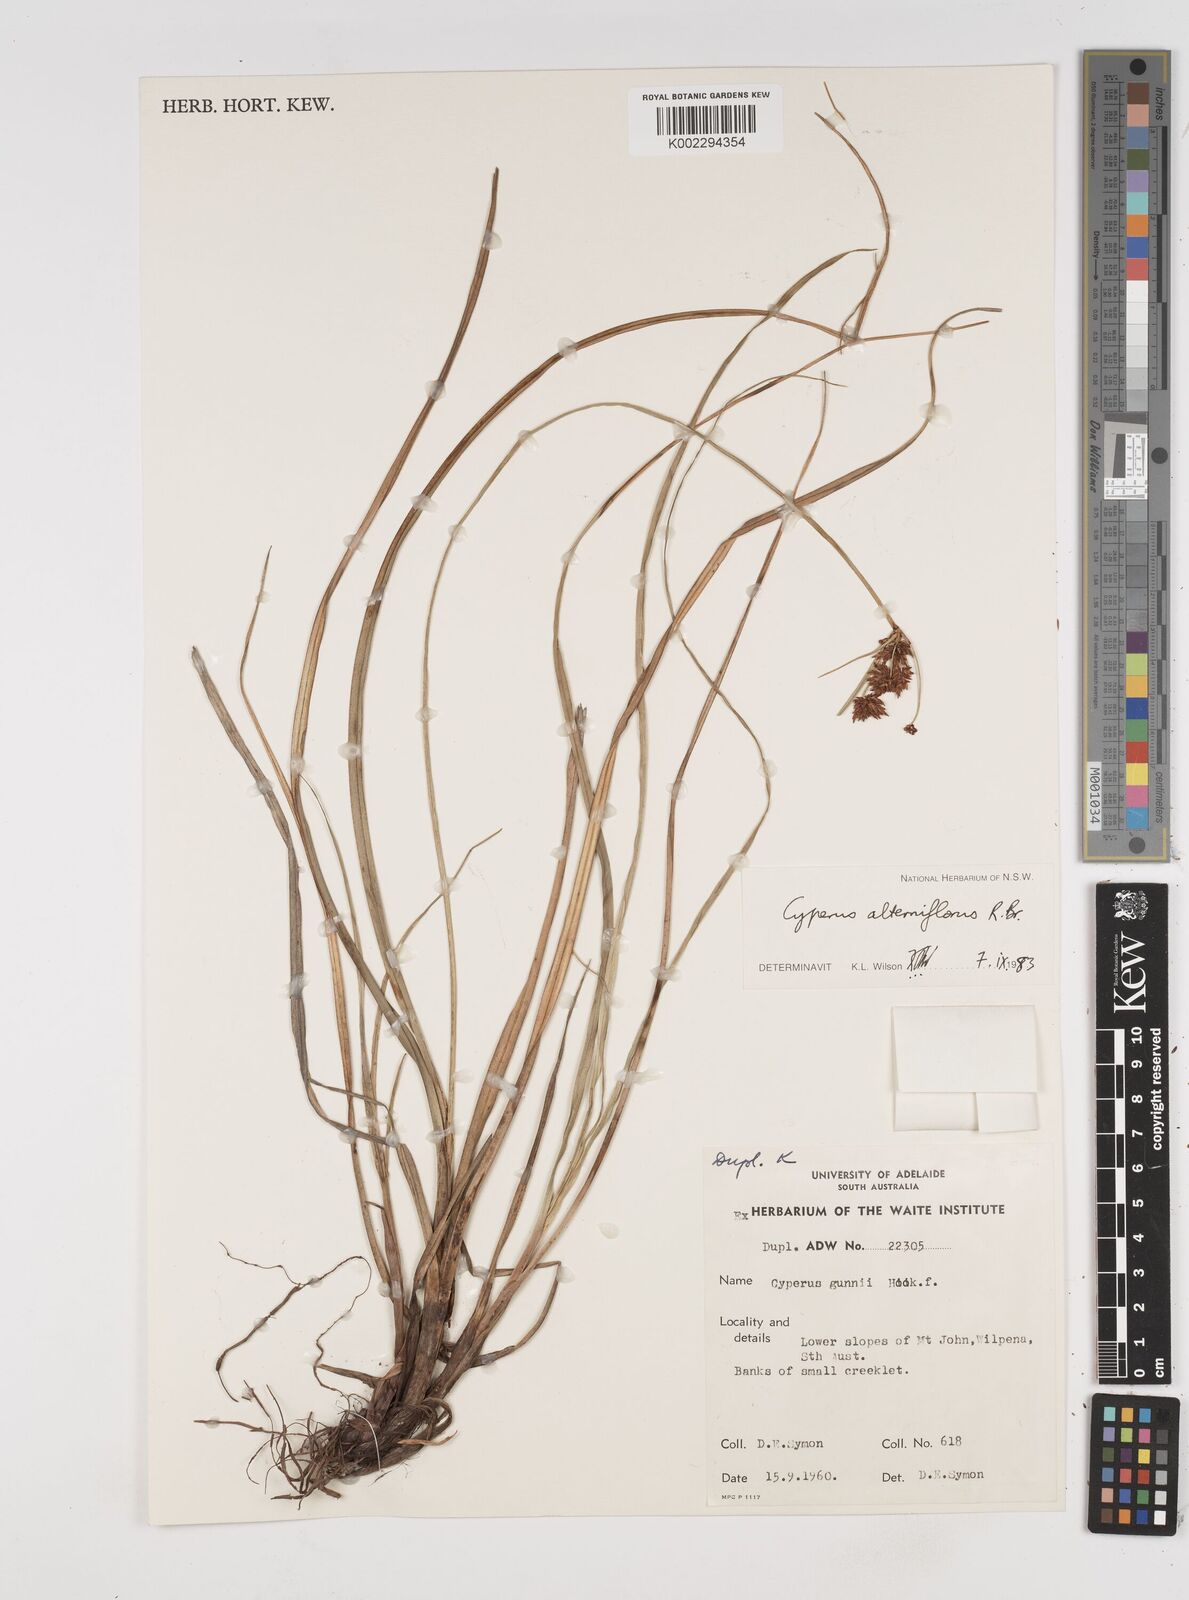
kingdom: Plantae
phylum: Tracheophyta
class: Liliopsida
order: Poales
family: Cyperaceae
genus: Cyperus
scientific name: Cyperus alterniflorus
